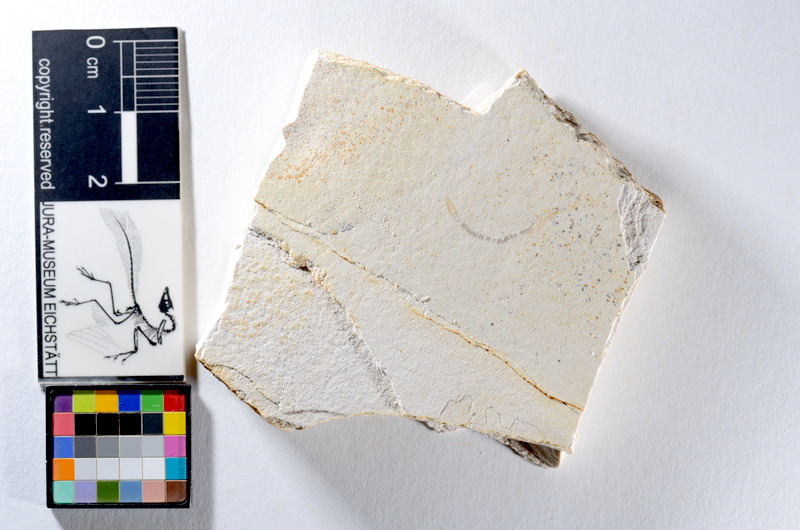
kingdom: Animalia
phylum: Chordata
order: Salmoniformes
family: Orthogonikleithridae
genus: Orthogonikleithrus
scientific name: Orthogonikleithrus hoelli
